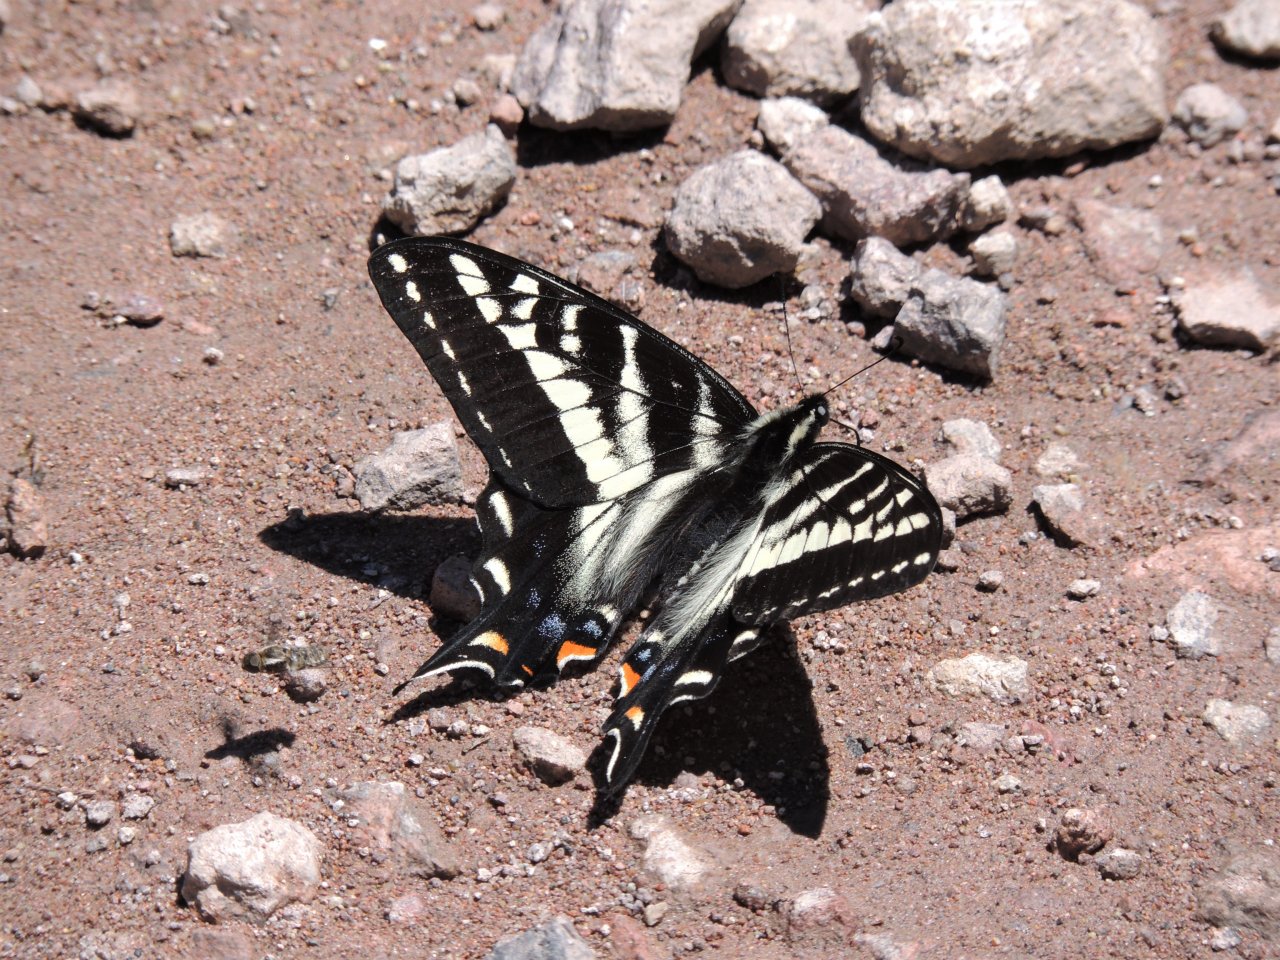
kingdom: Animalia
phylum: Arthropoda
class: Insecta
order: Lepidoptera
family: Papilionidae
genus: Pterourus
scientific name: Pterourus eurymedon
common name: Pale Swallowtail
